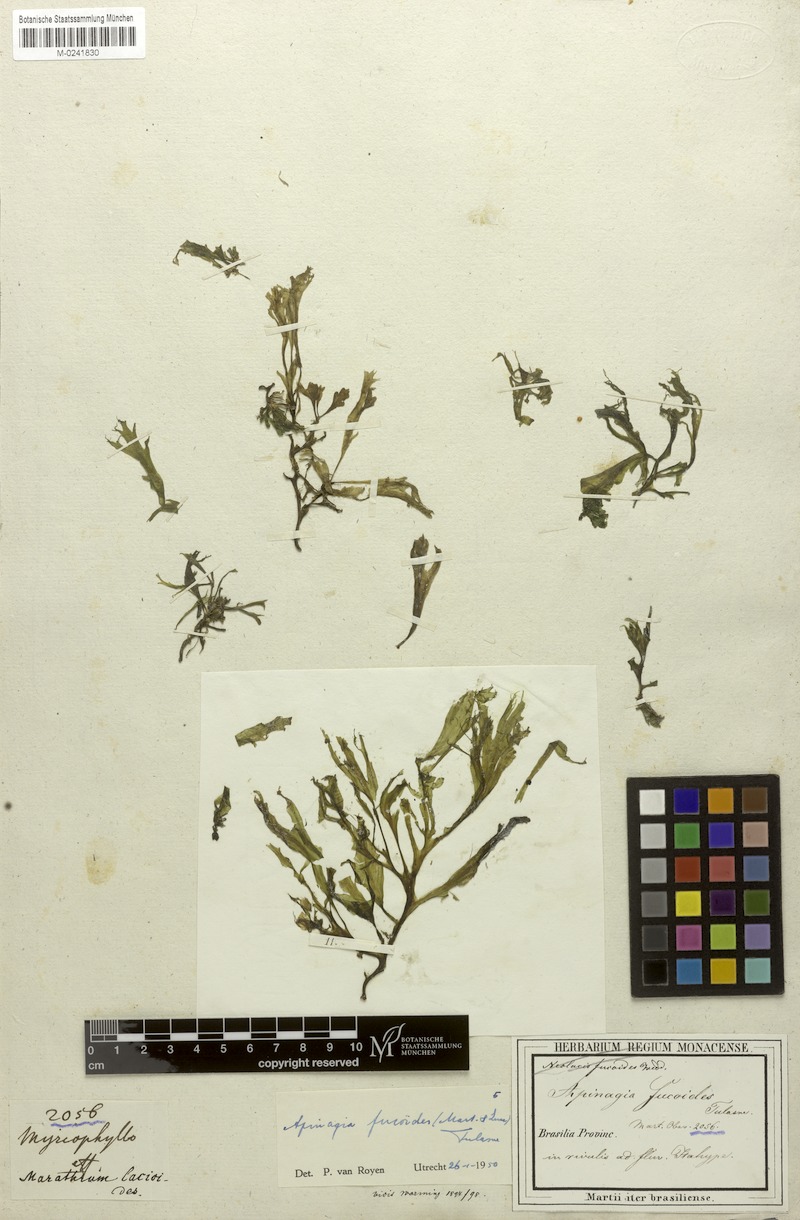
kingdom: Plantae
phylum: Tracheophyta
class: Magnoliopsida
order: Malpighiales
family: Podostemaceae
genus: Apinagia
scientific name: Apinagia fucoides
